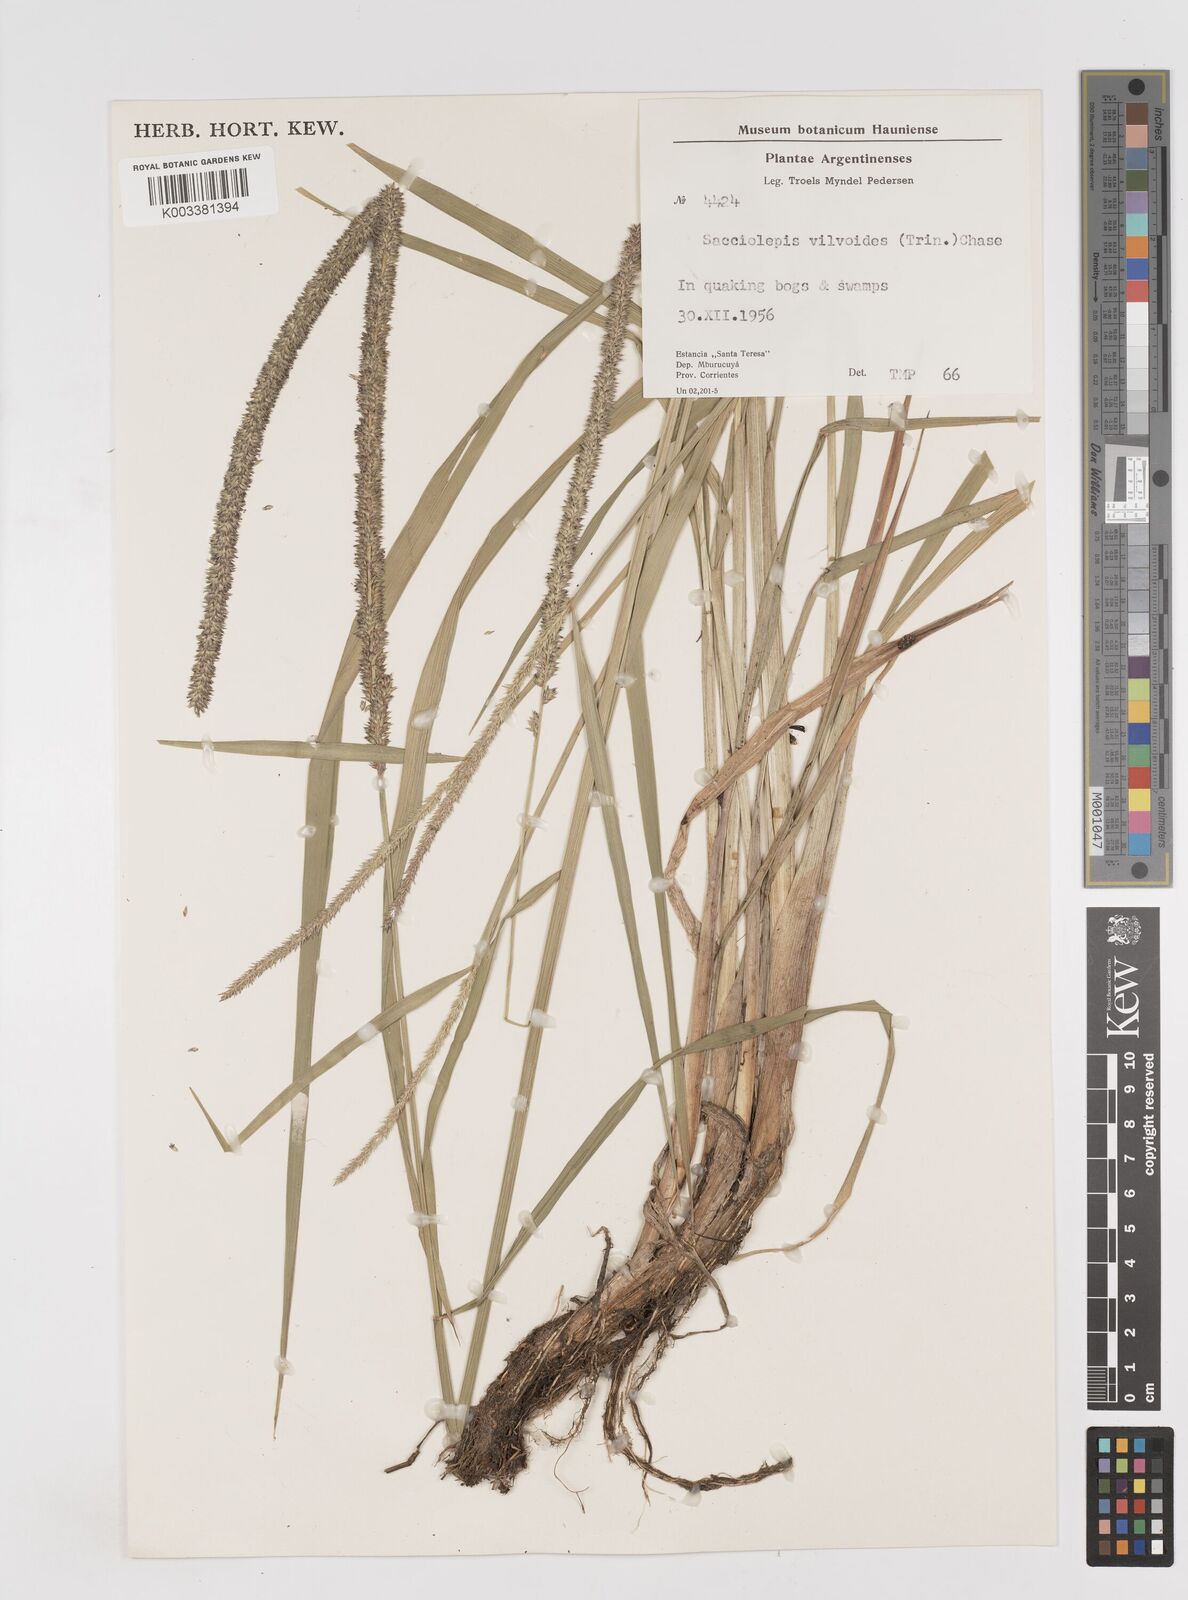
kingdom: Plantae
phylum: Tracheophyta
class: Liliopsida
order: Poales
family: Poaceae
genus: Sacciolepis
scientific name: Sacciolepis vilvoides
